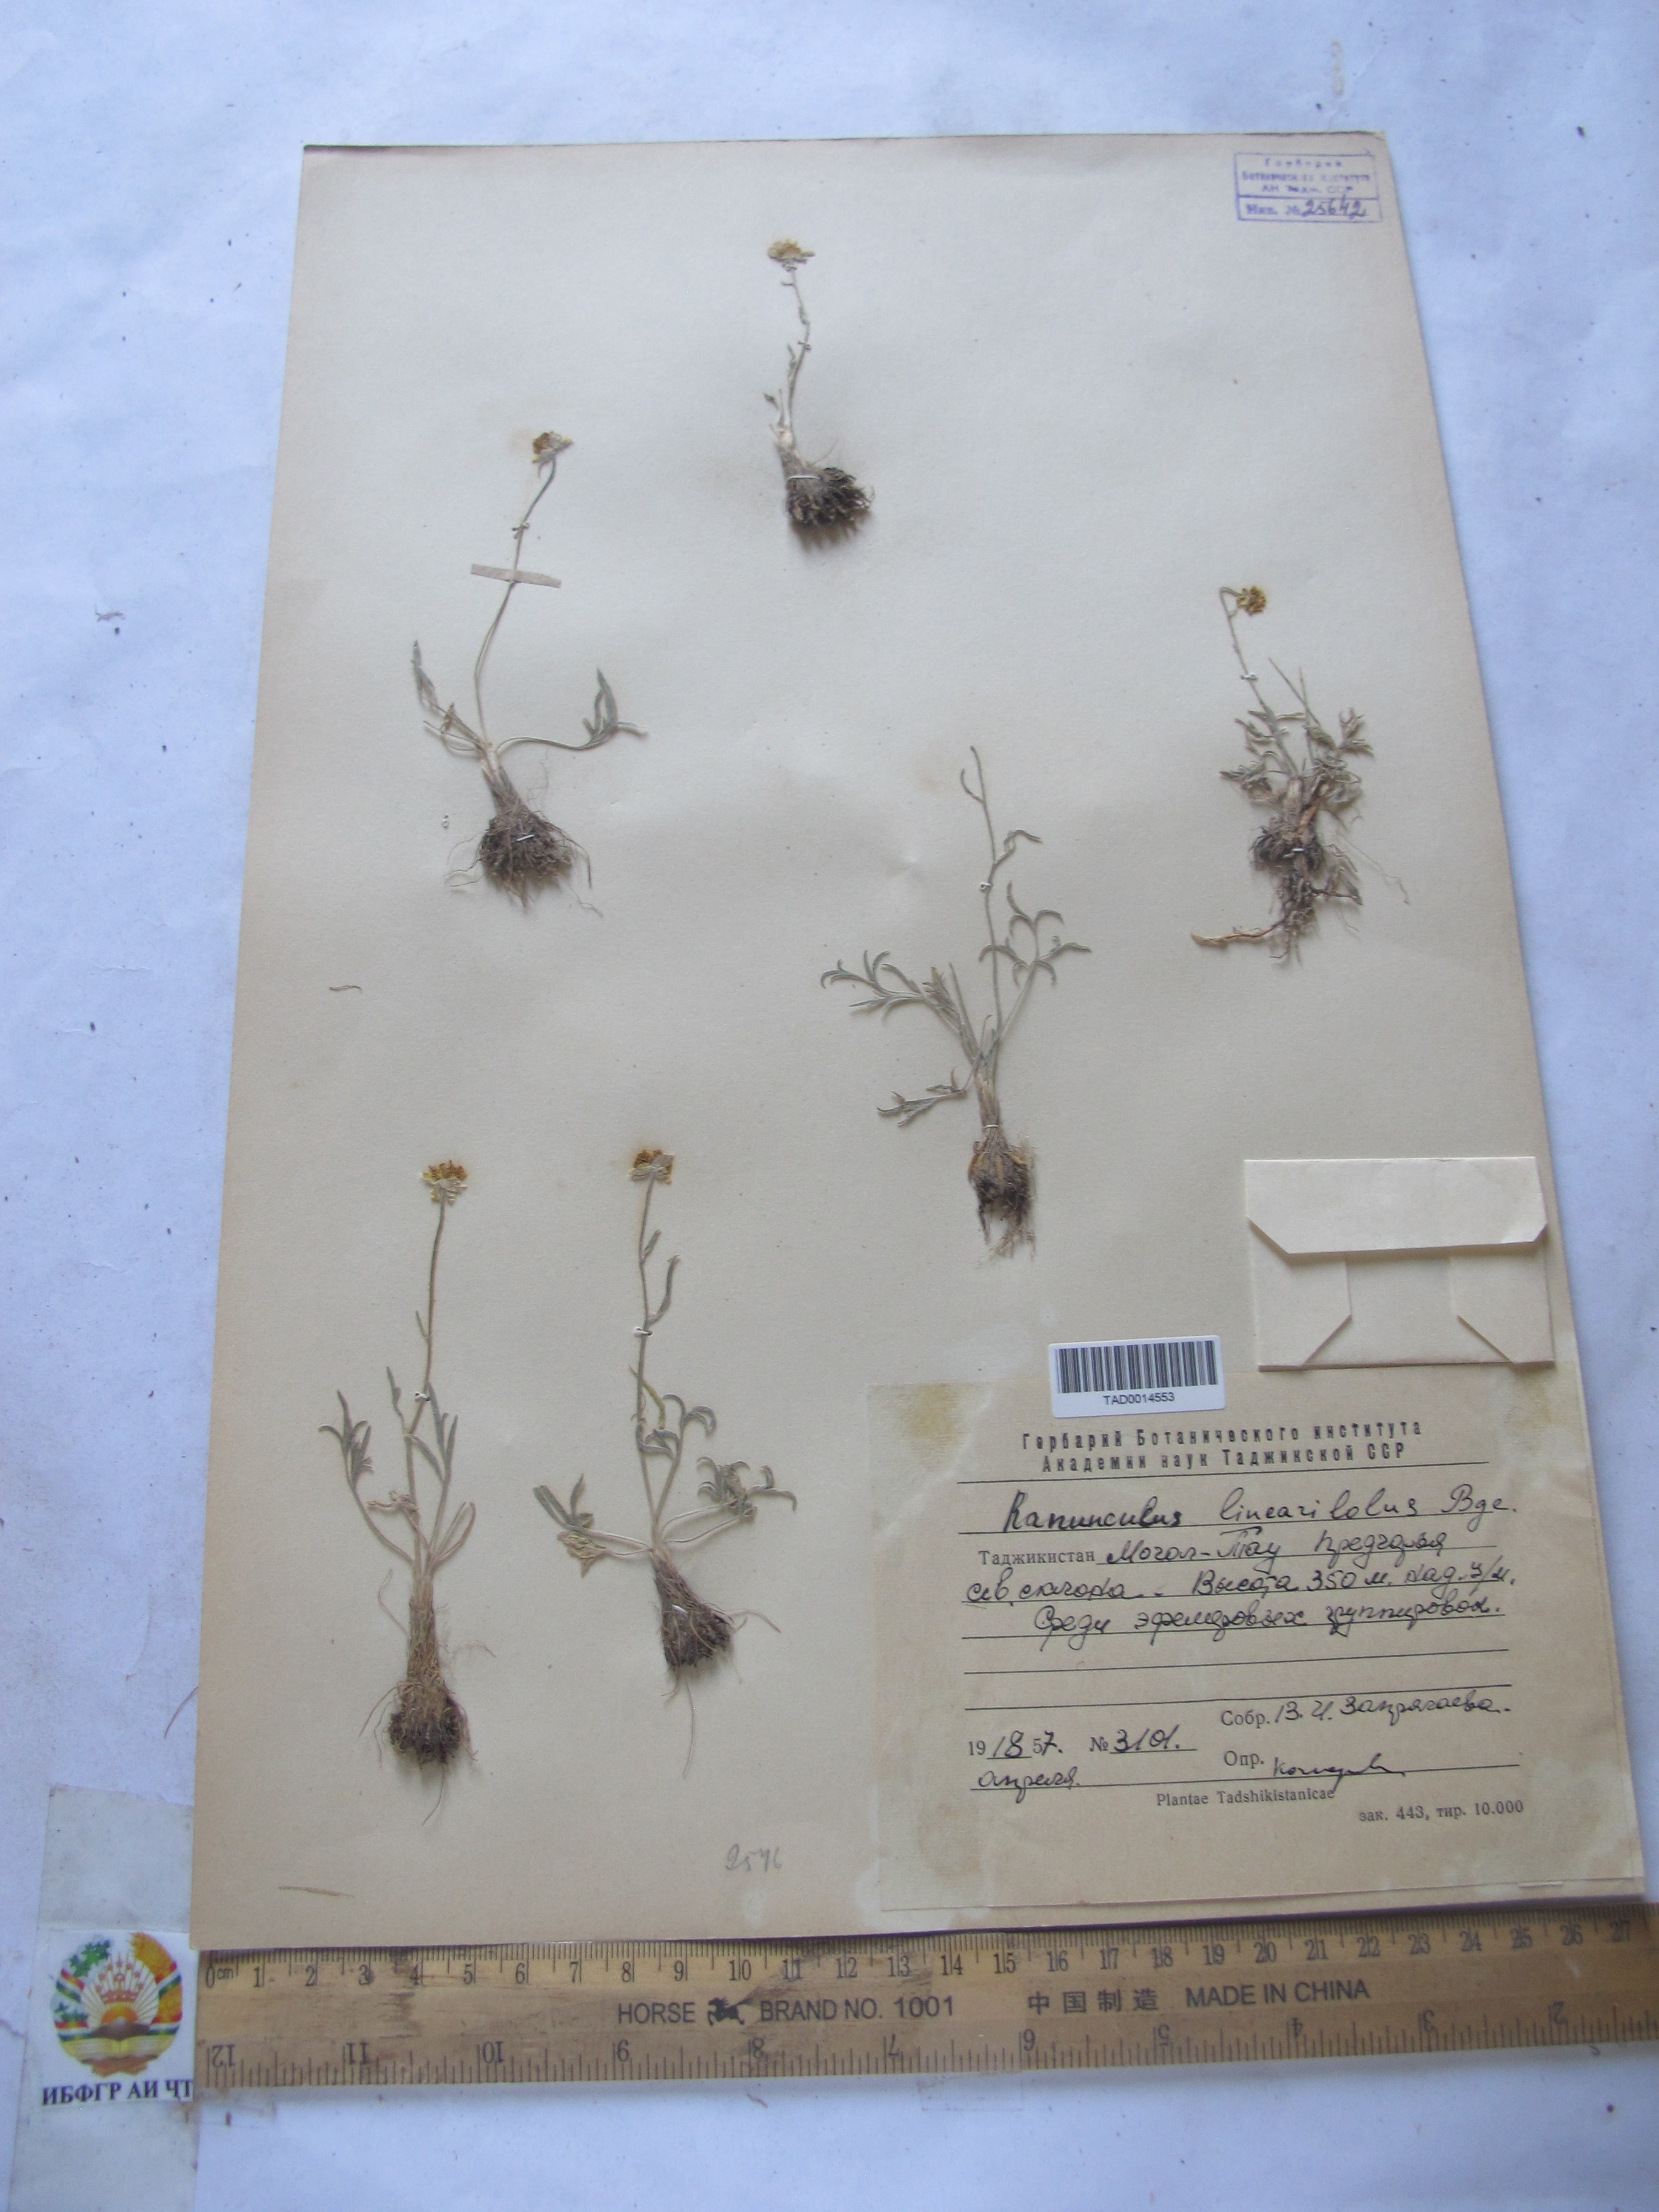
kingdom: Plantae
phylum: Tracheophyta
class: Magnoliopsida
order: Ranunculales
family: Ranunculaceae
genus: Ranunculus
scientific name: Ranunculus linearilobus
